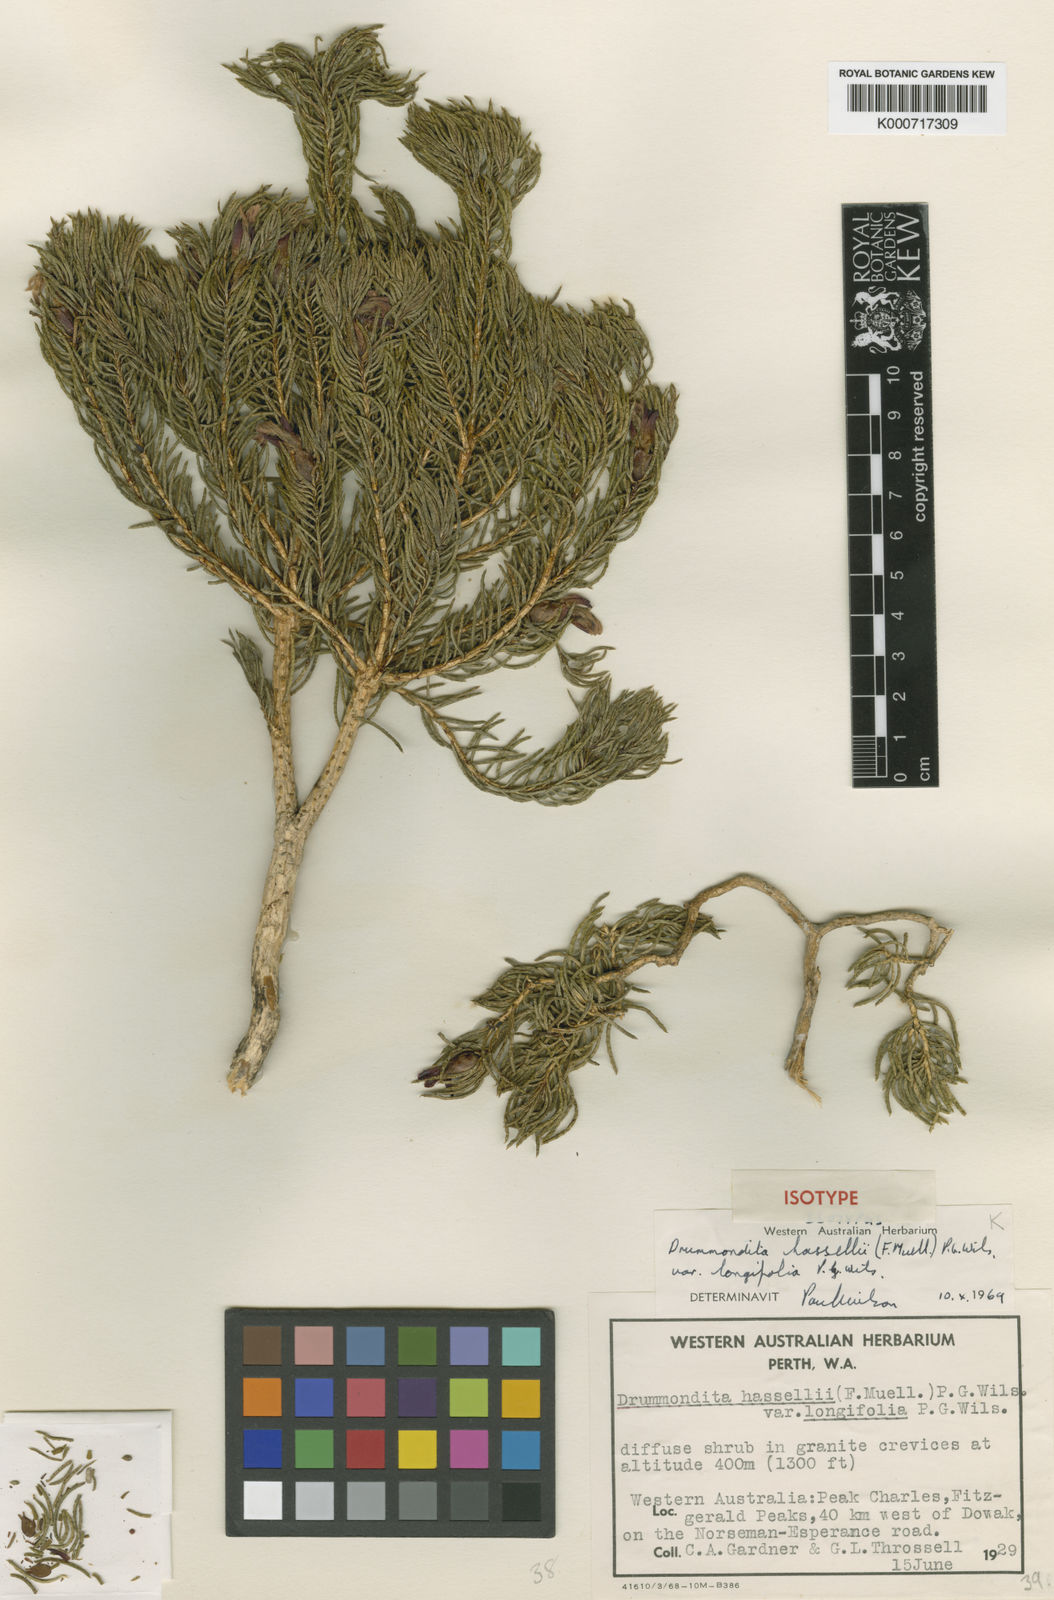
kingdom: Plantae
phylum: Tracheophyta
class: Magnoliopsida
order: Sapindales
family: Rutaceae
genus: Drummondita
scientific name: Drummondita longifolia
